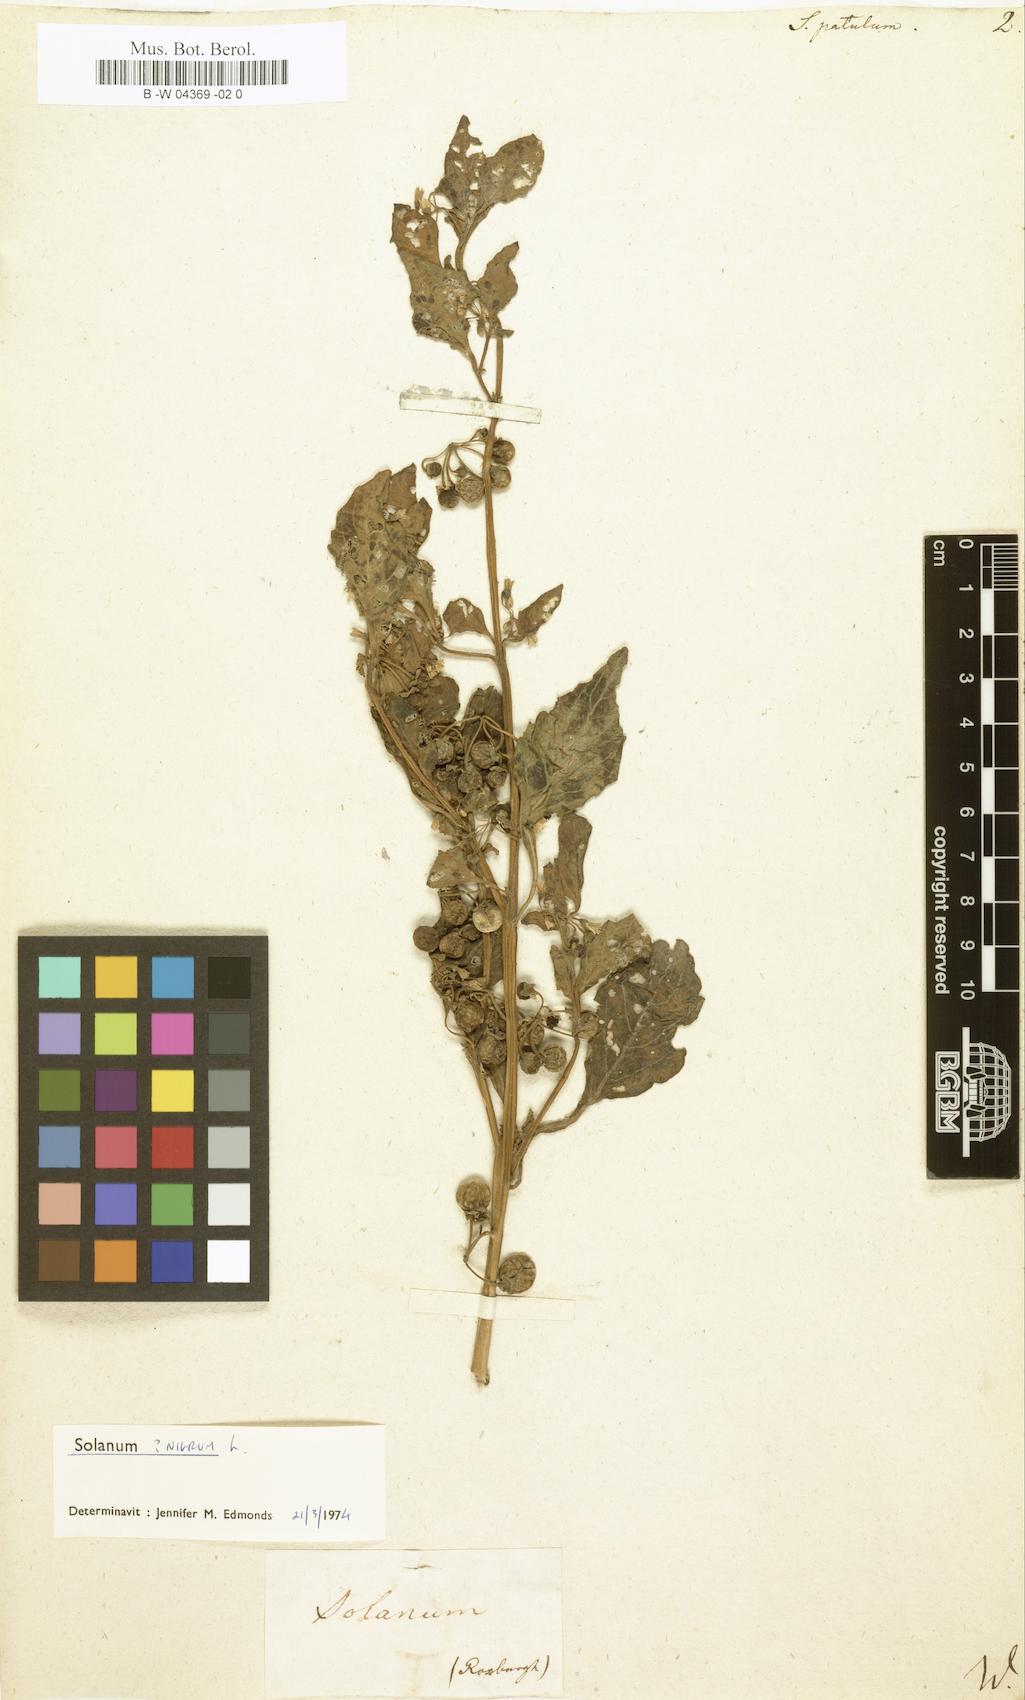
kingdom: Plantae
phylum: Tracheophyta
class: Magnoliopsida
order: Solanales
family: Solanaceae
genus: Solanum
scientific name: Solanum
